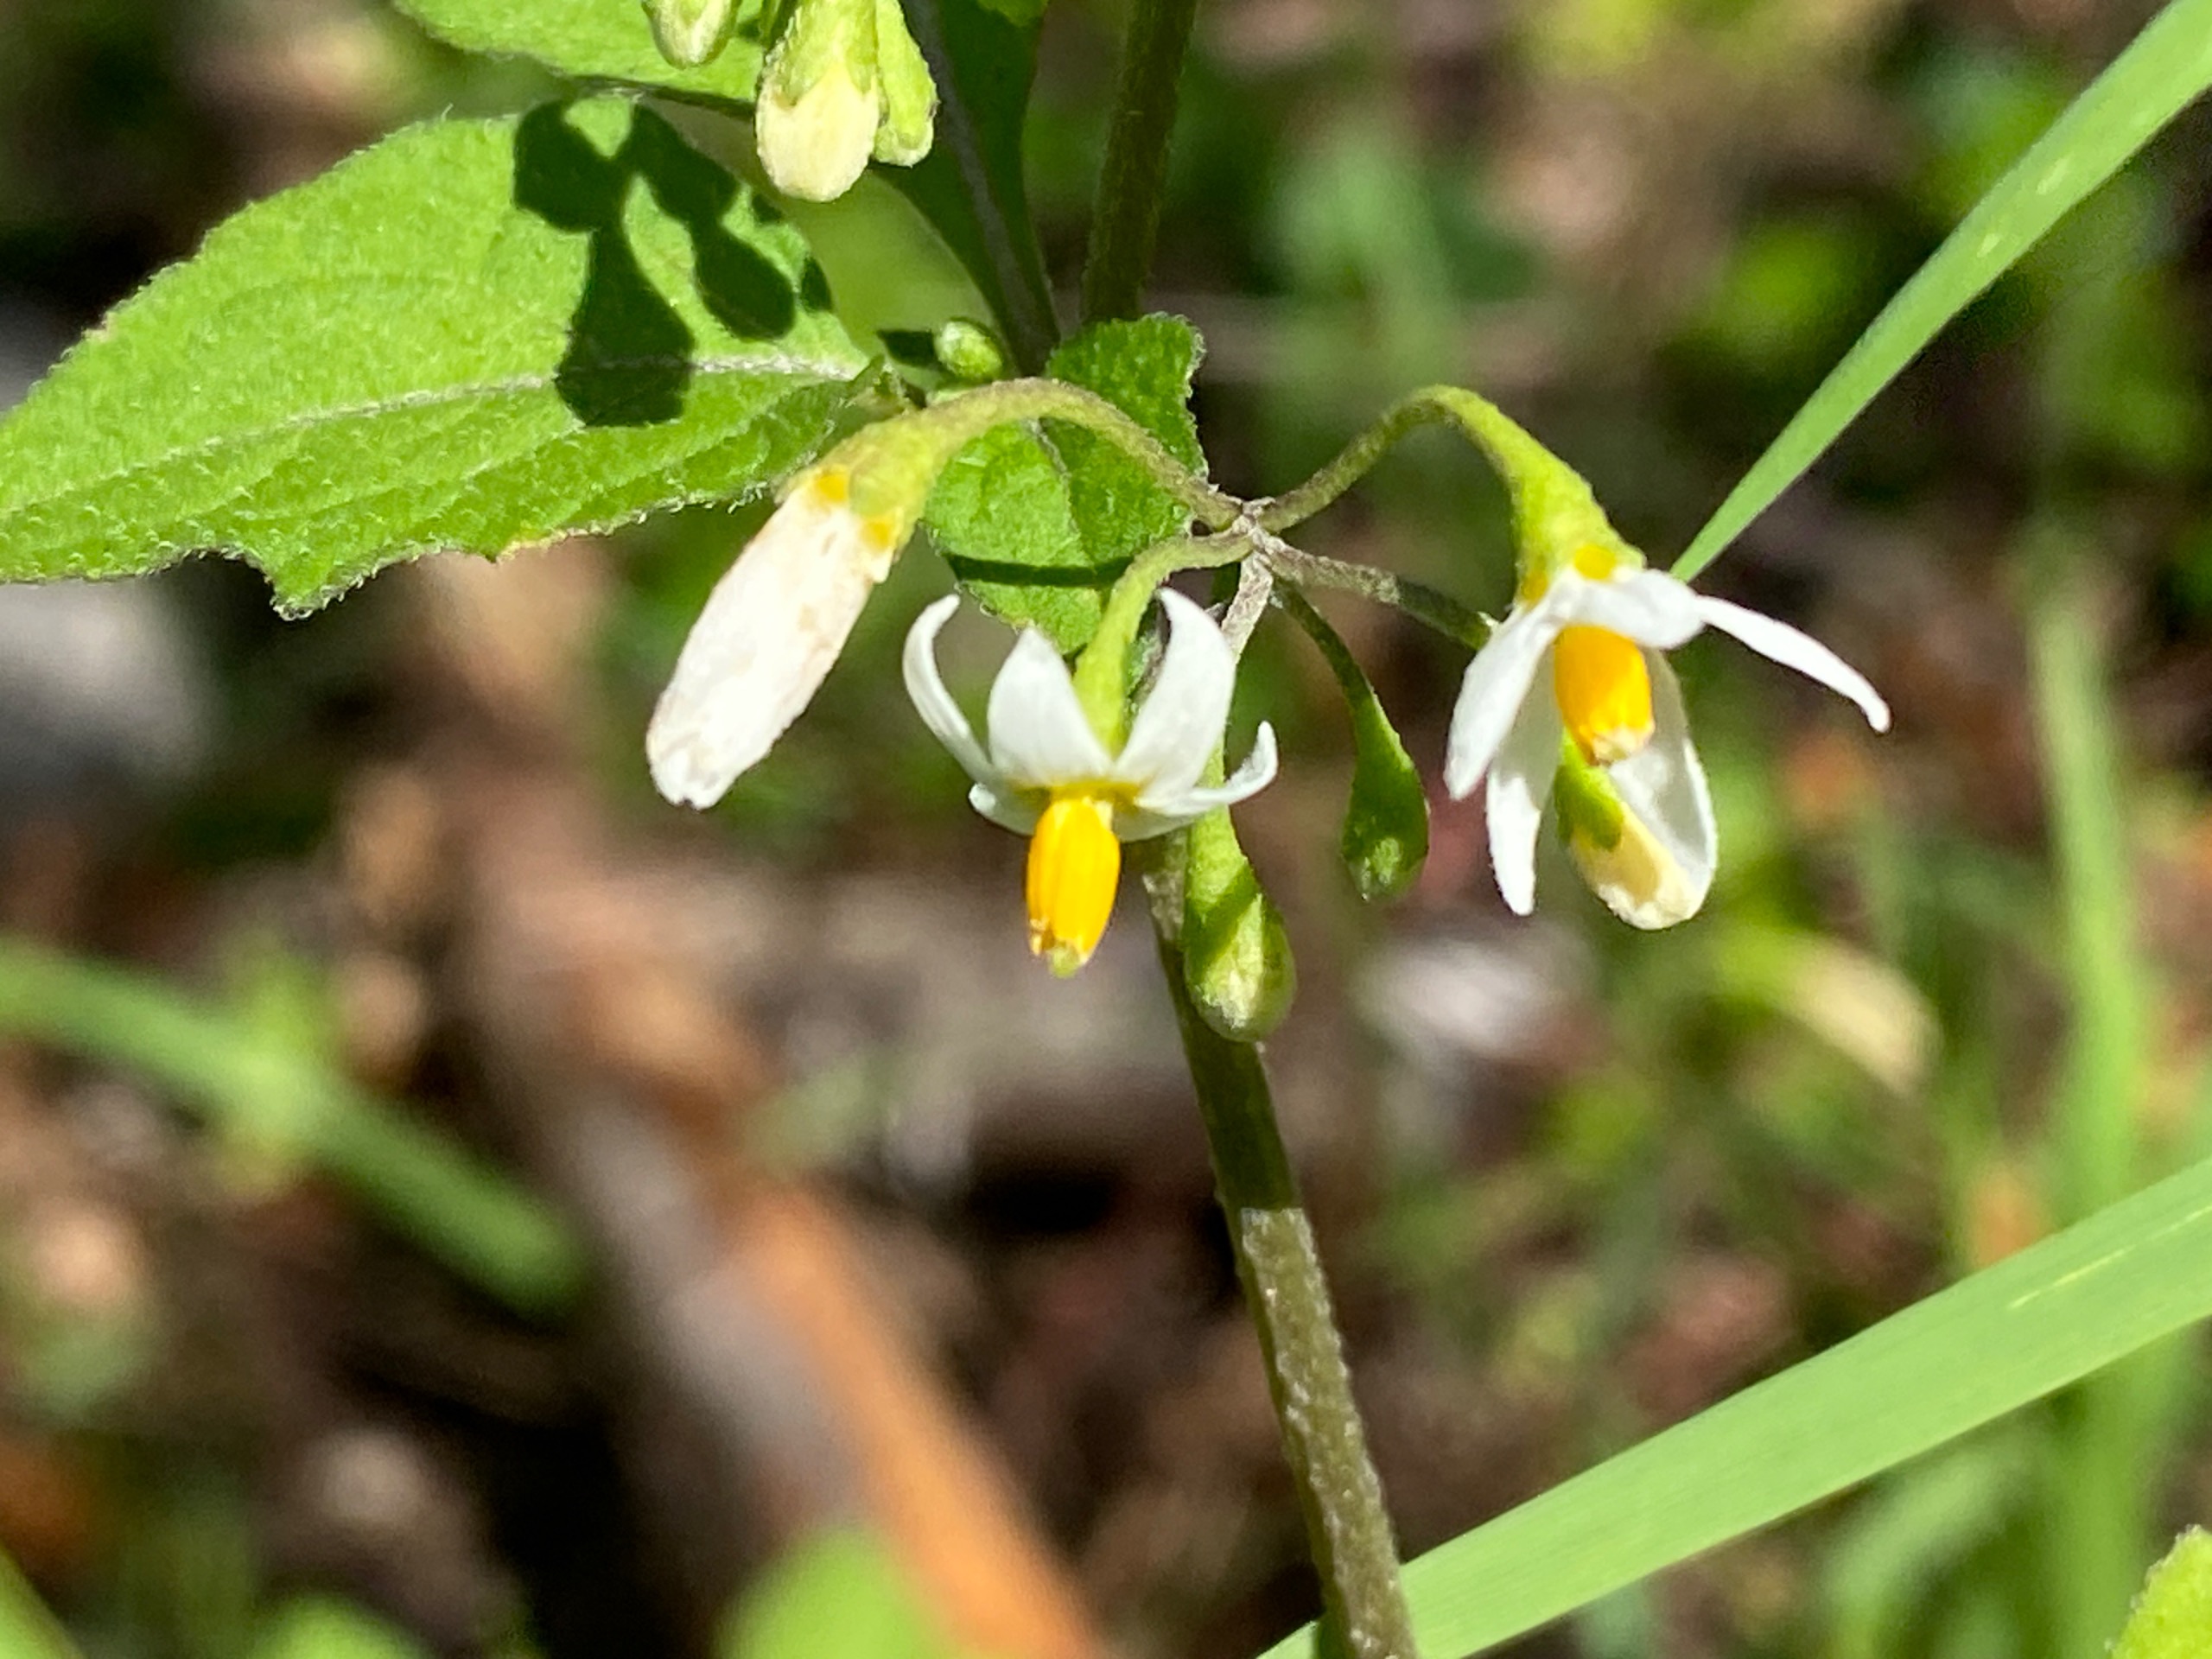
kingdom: Plantae
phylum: Tracheophyta
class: Magnoliopsida
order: Solanales
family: Solanaceae
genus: Solanum
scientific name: Solanum nigrum
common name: Sort natskygge (underart)
